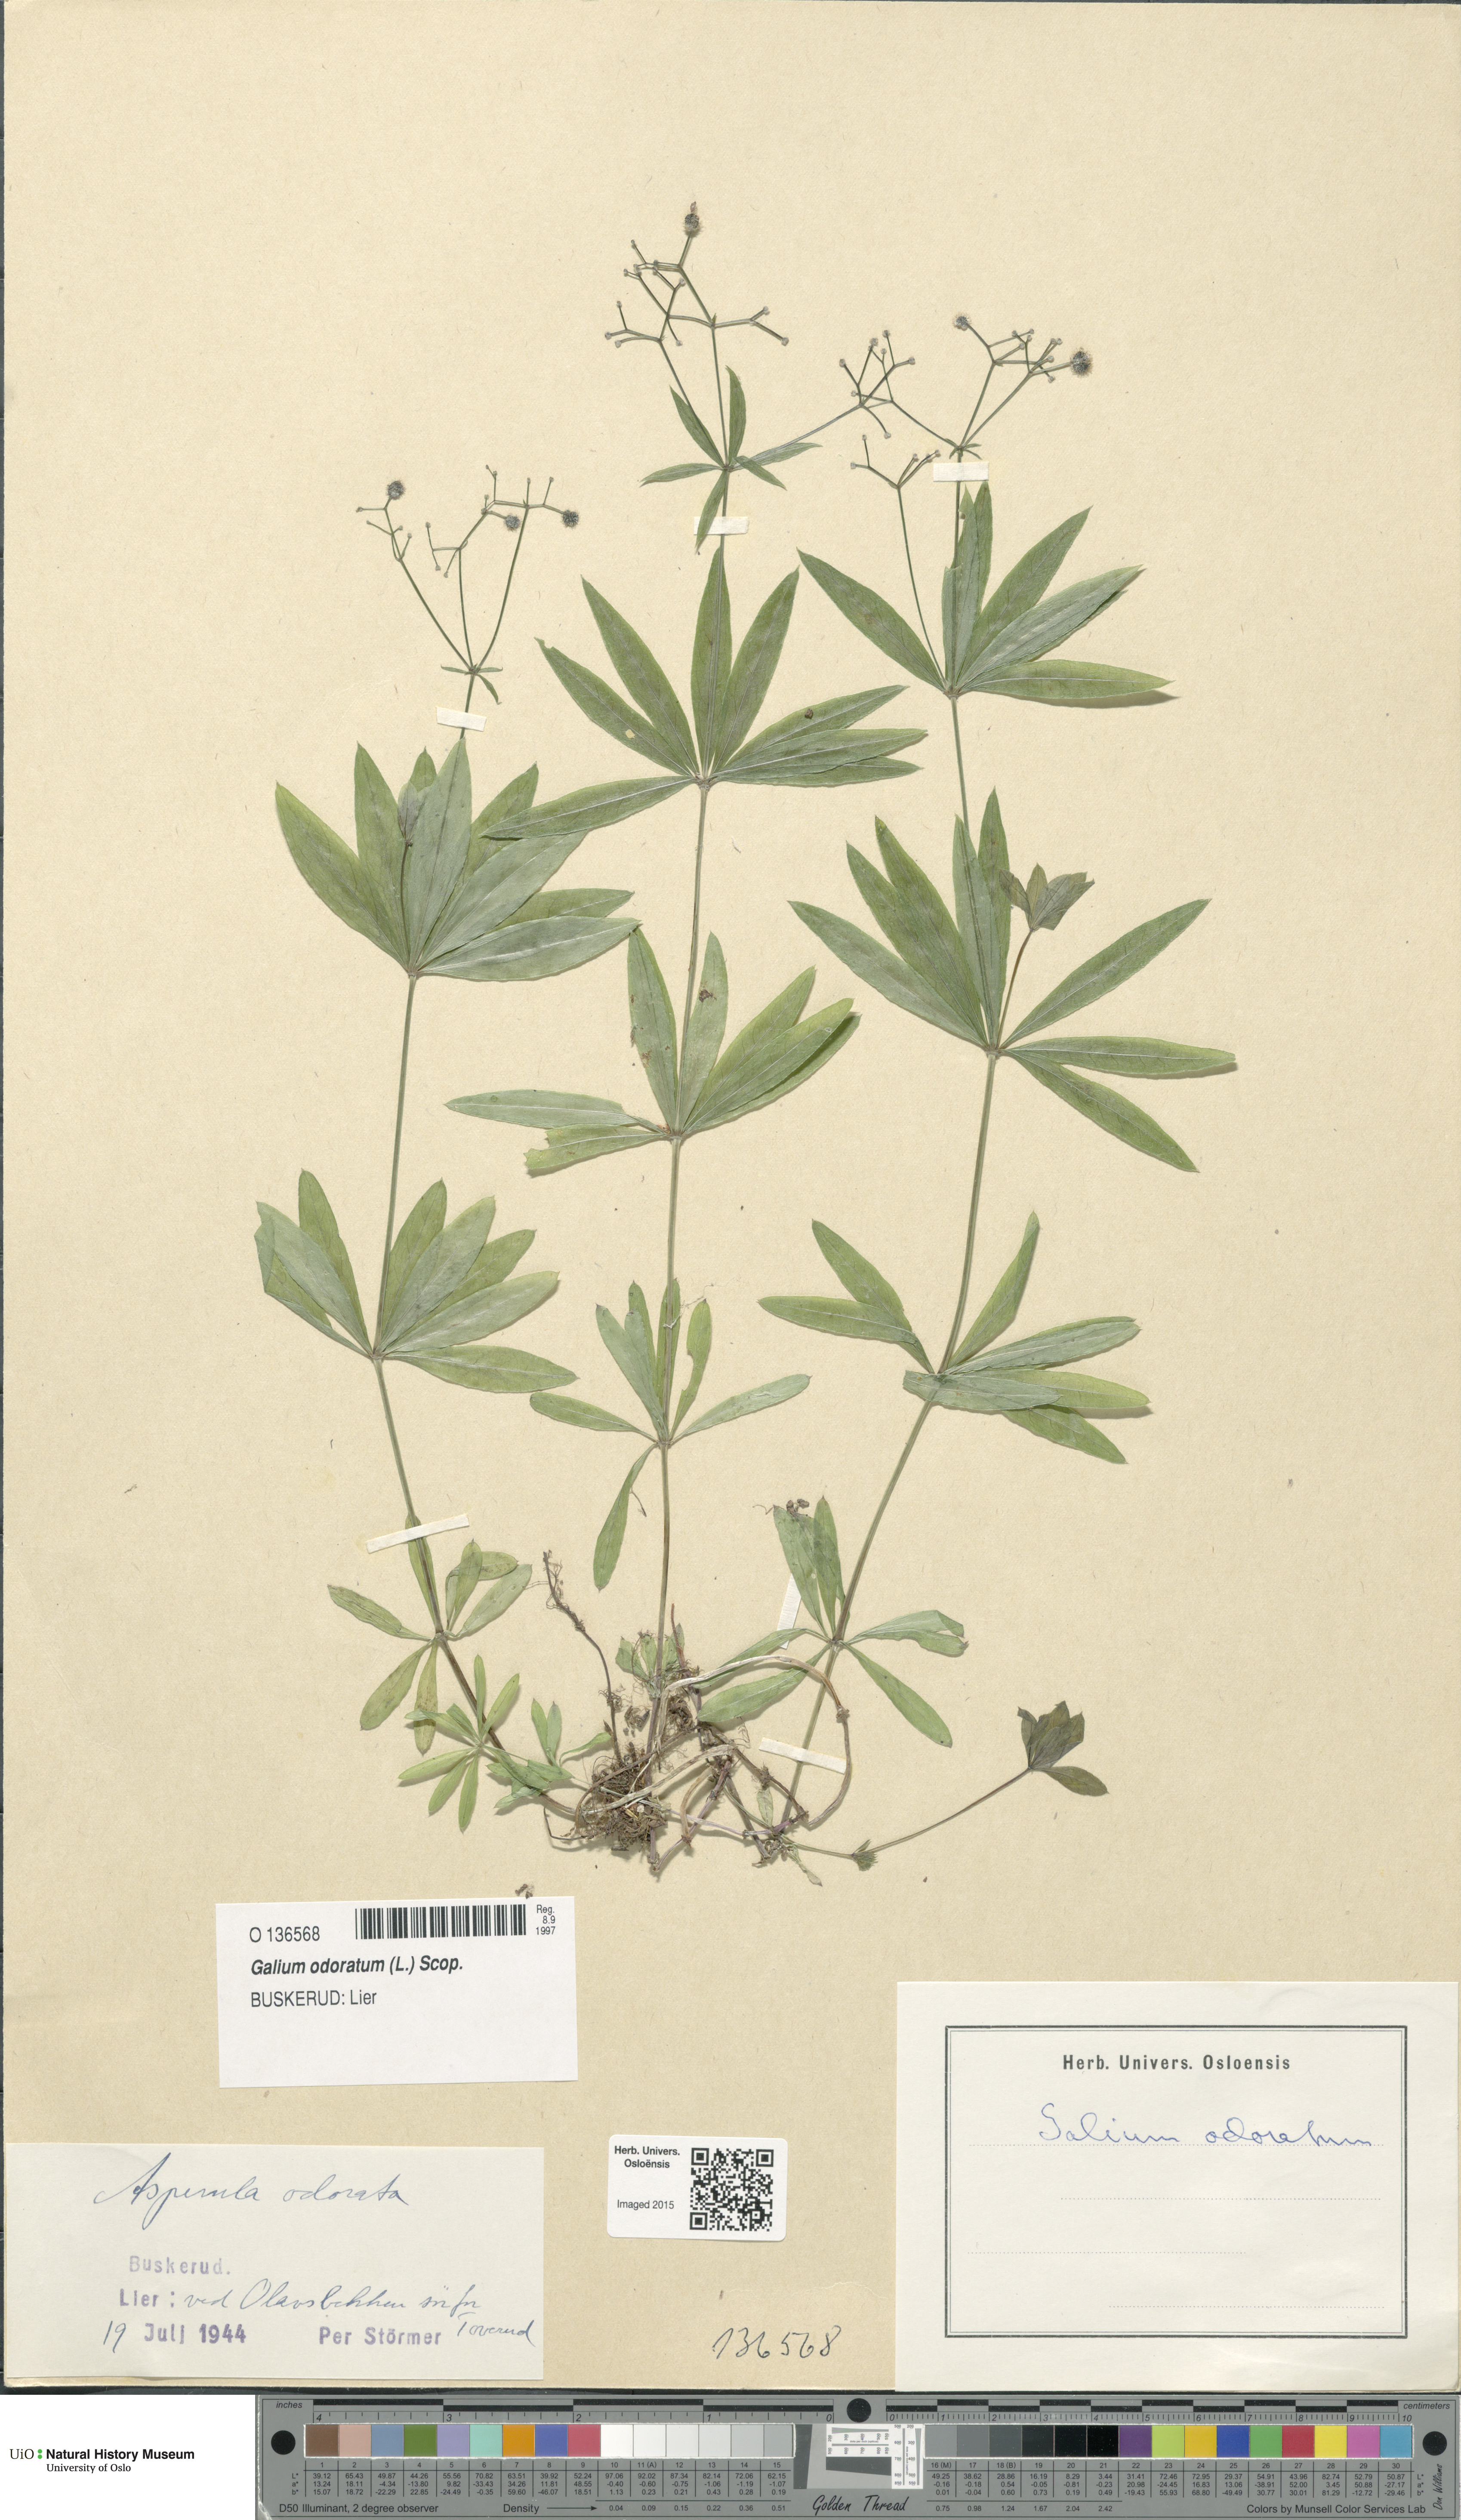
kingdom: Plantae
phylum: Tracheophyta
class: Magnoliopsida
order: Gentianales
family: Rubiaceae
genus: Galium
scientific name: Galium odoratum
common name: Sweet woodruff
